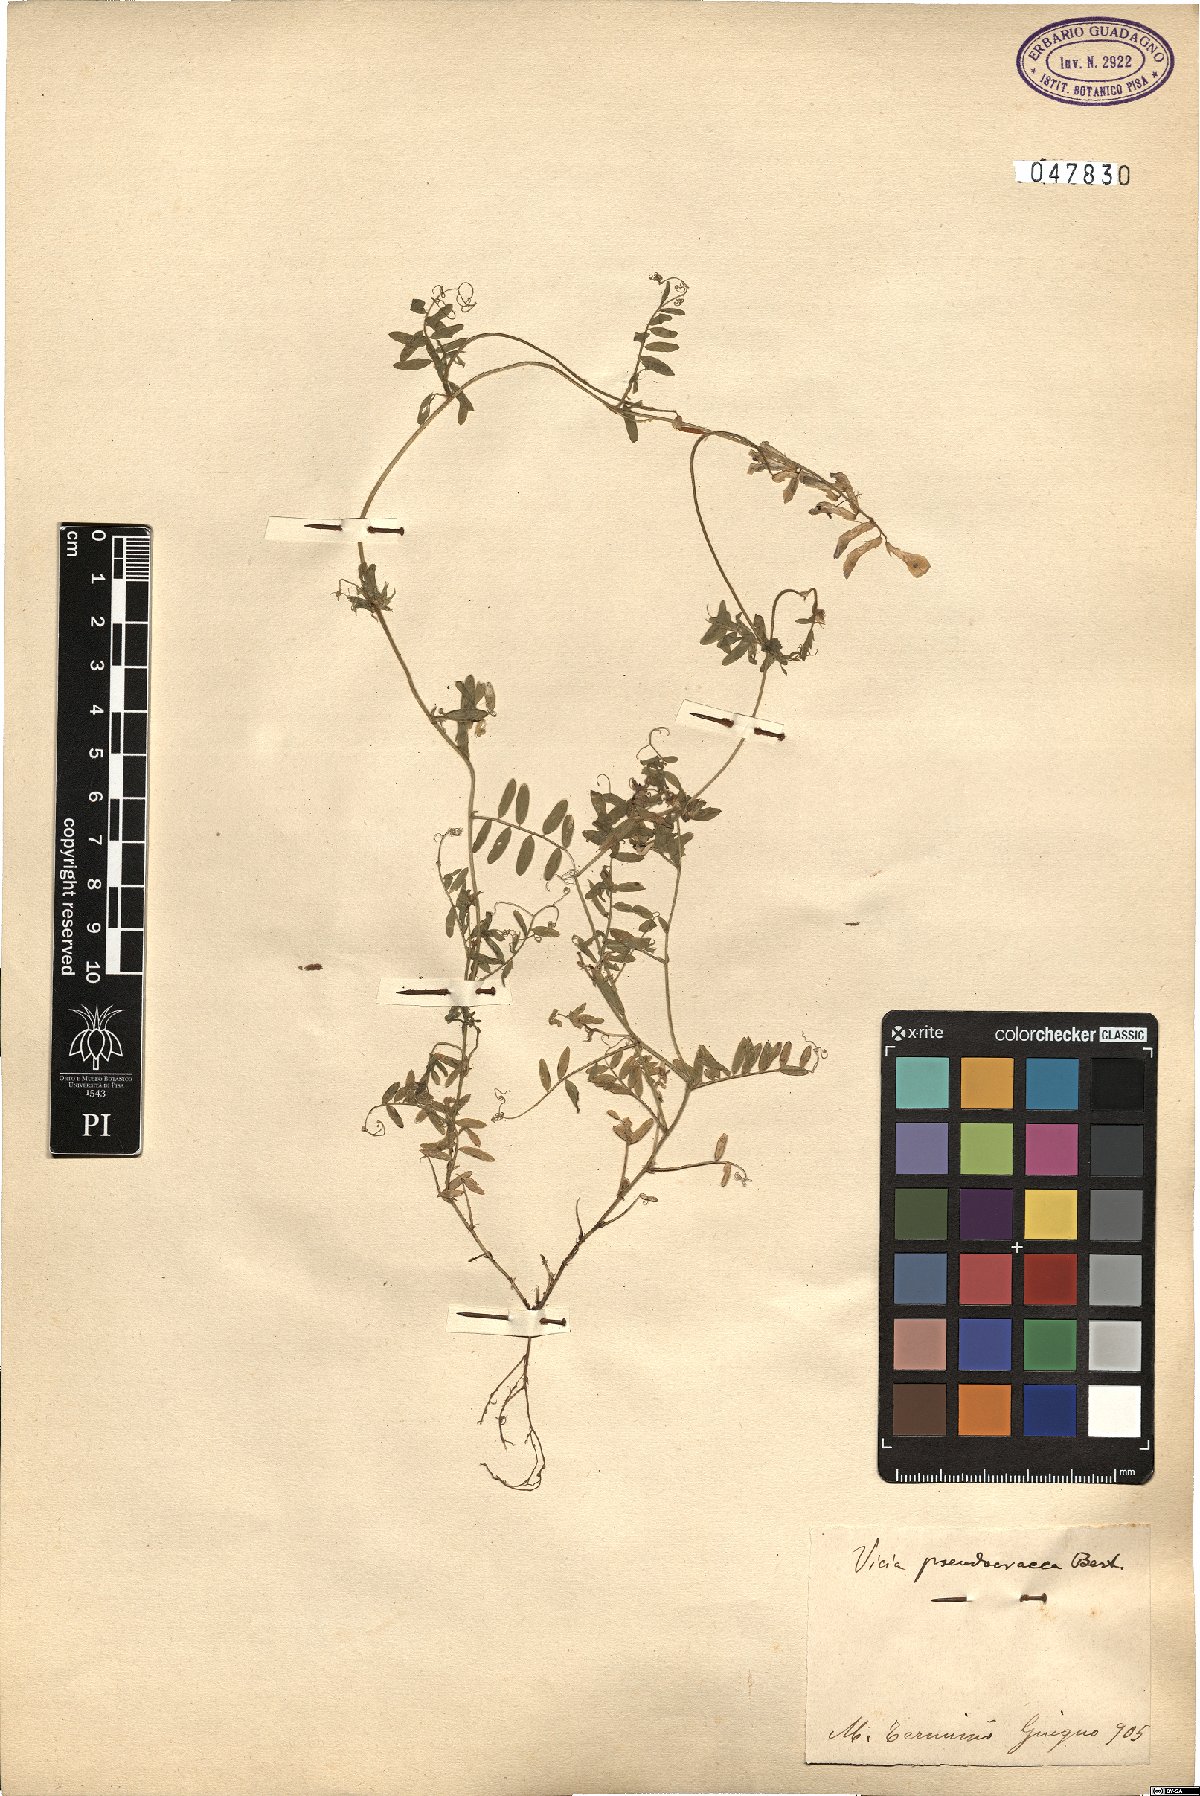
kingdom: Plantae
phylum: Tracheophyta
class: Magnoliopsida
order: Fabales
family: Fabaceae
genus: Vicia
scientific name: Vicia villosa
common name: Fodder vetch
